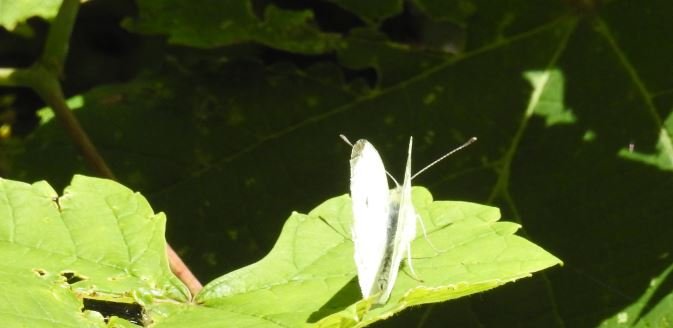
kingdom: Animalia
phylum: Arthropoda
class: Insecta
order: Lepidoptera
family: Pieridae
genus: Pieris
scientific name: Pieris rapae
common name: Cabbage White
